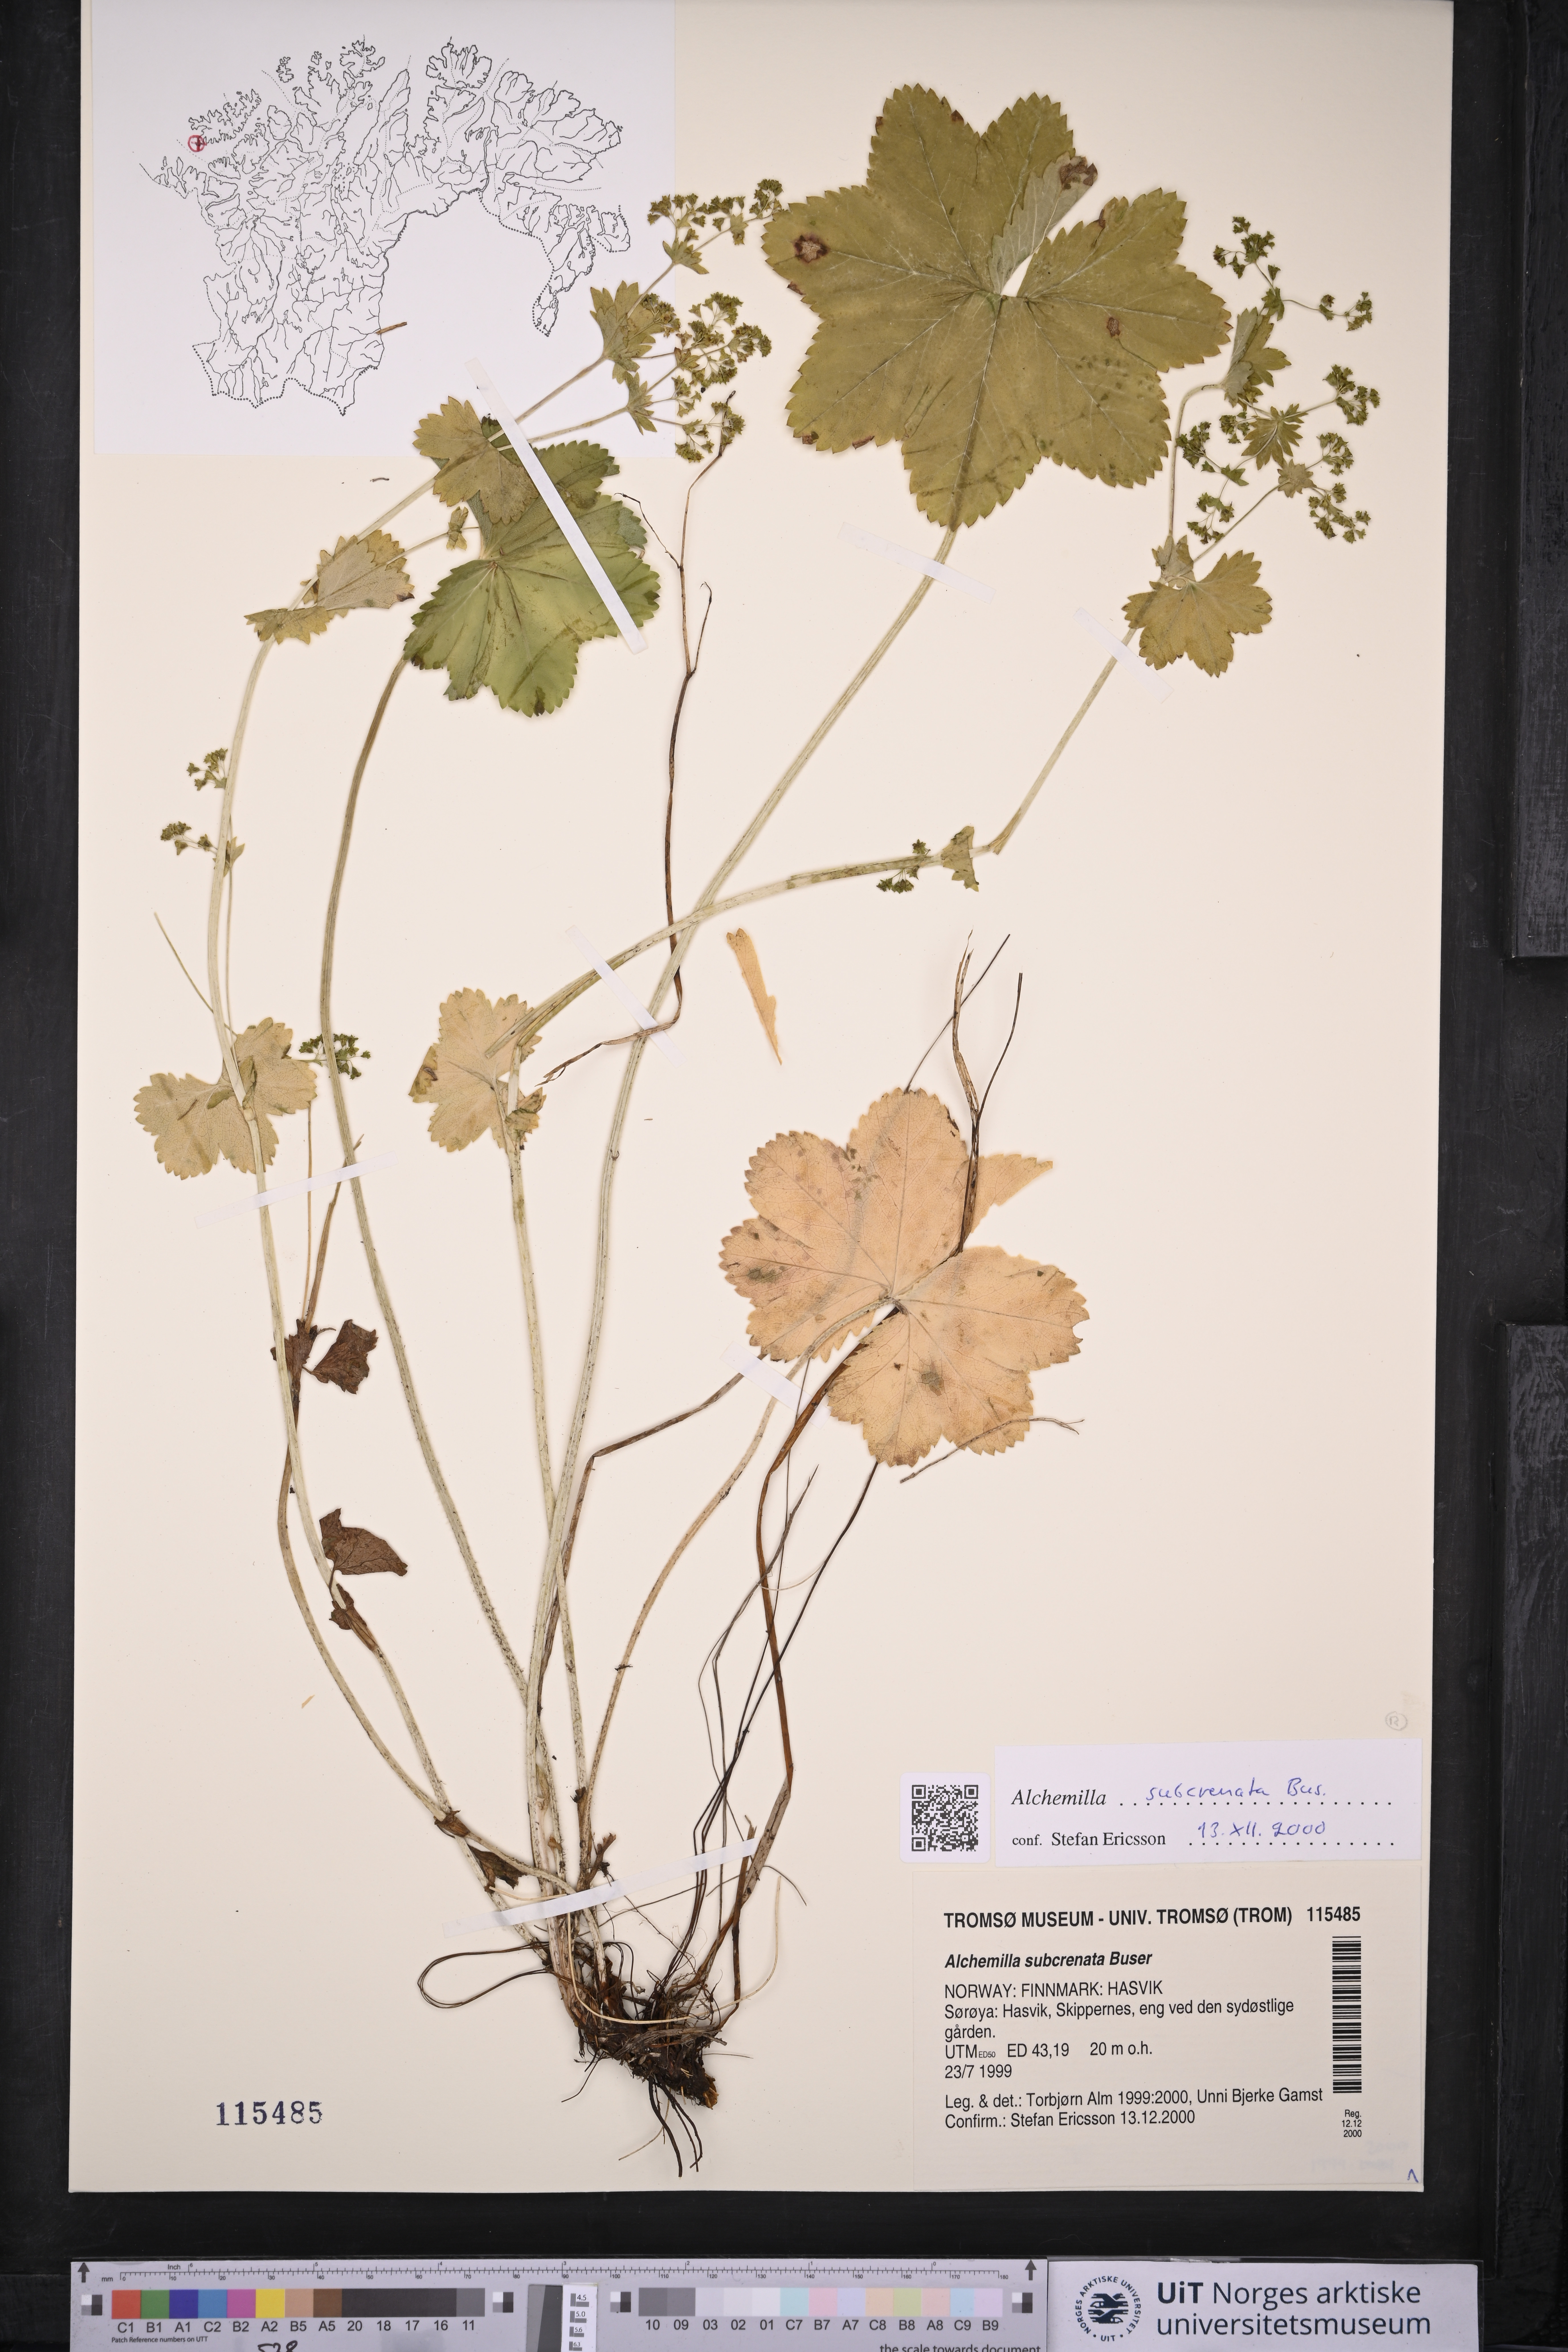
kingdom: Plantae
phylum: Tracheophyta
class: Magnoliopsida
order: Rosales
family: Rosaceae
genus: Alchemilla
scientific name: Alchemilla subcrenata
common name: Broadtooth lady's mantle
